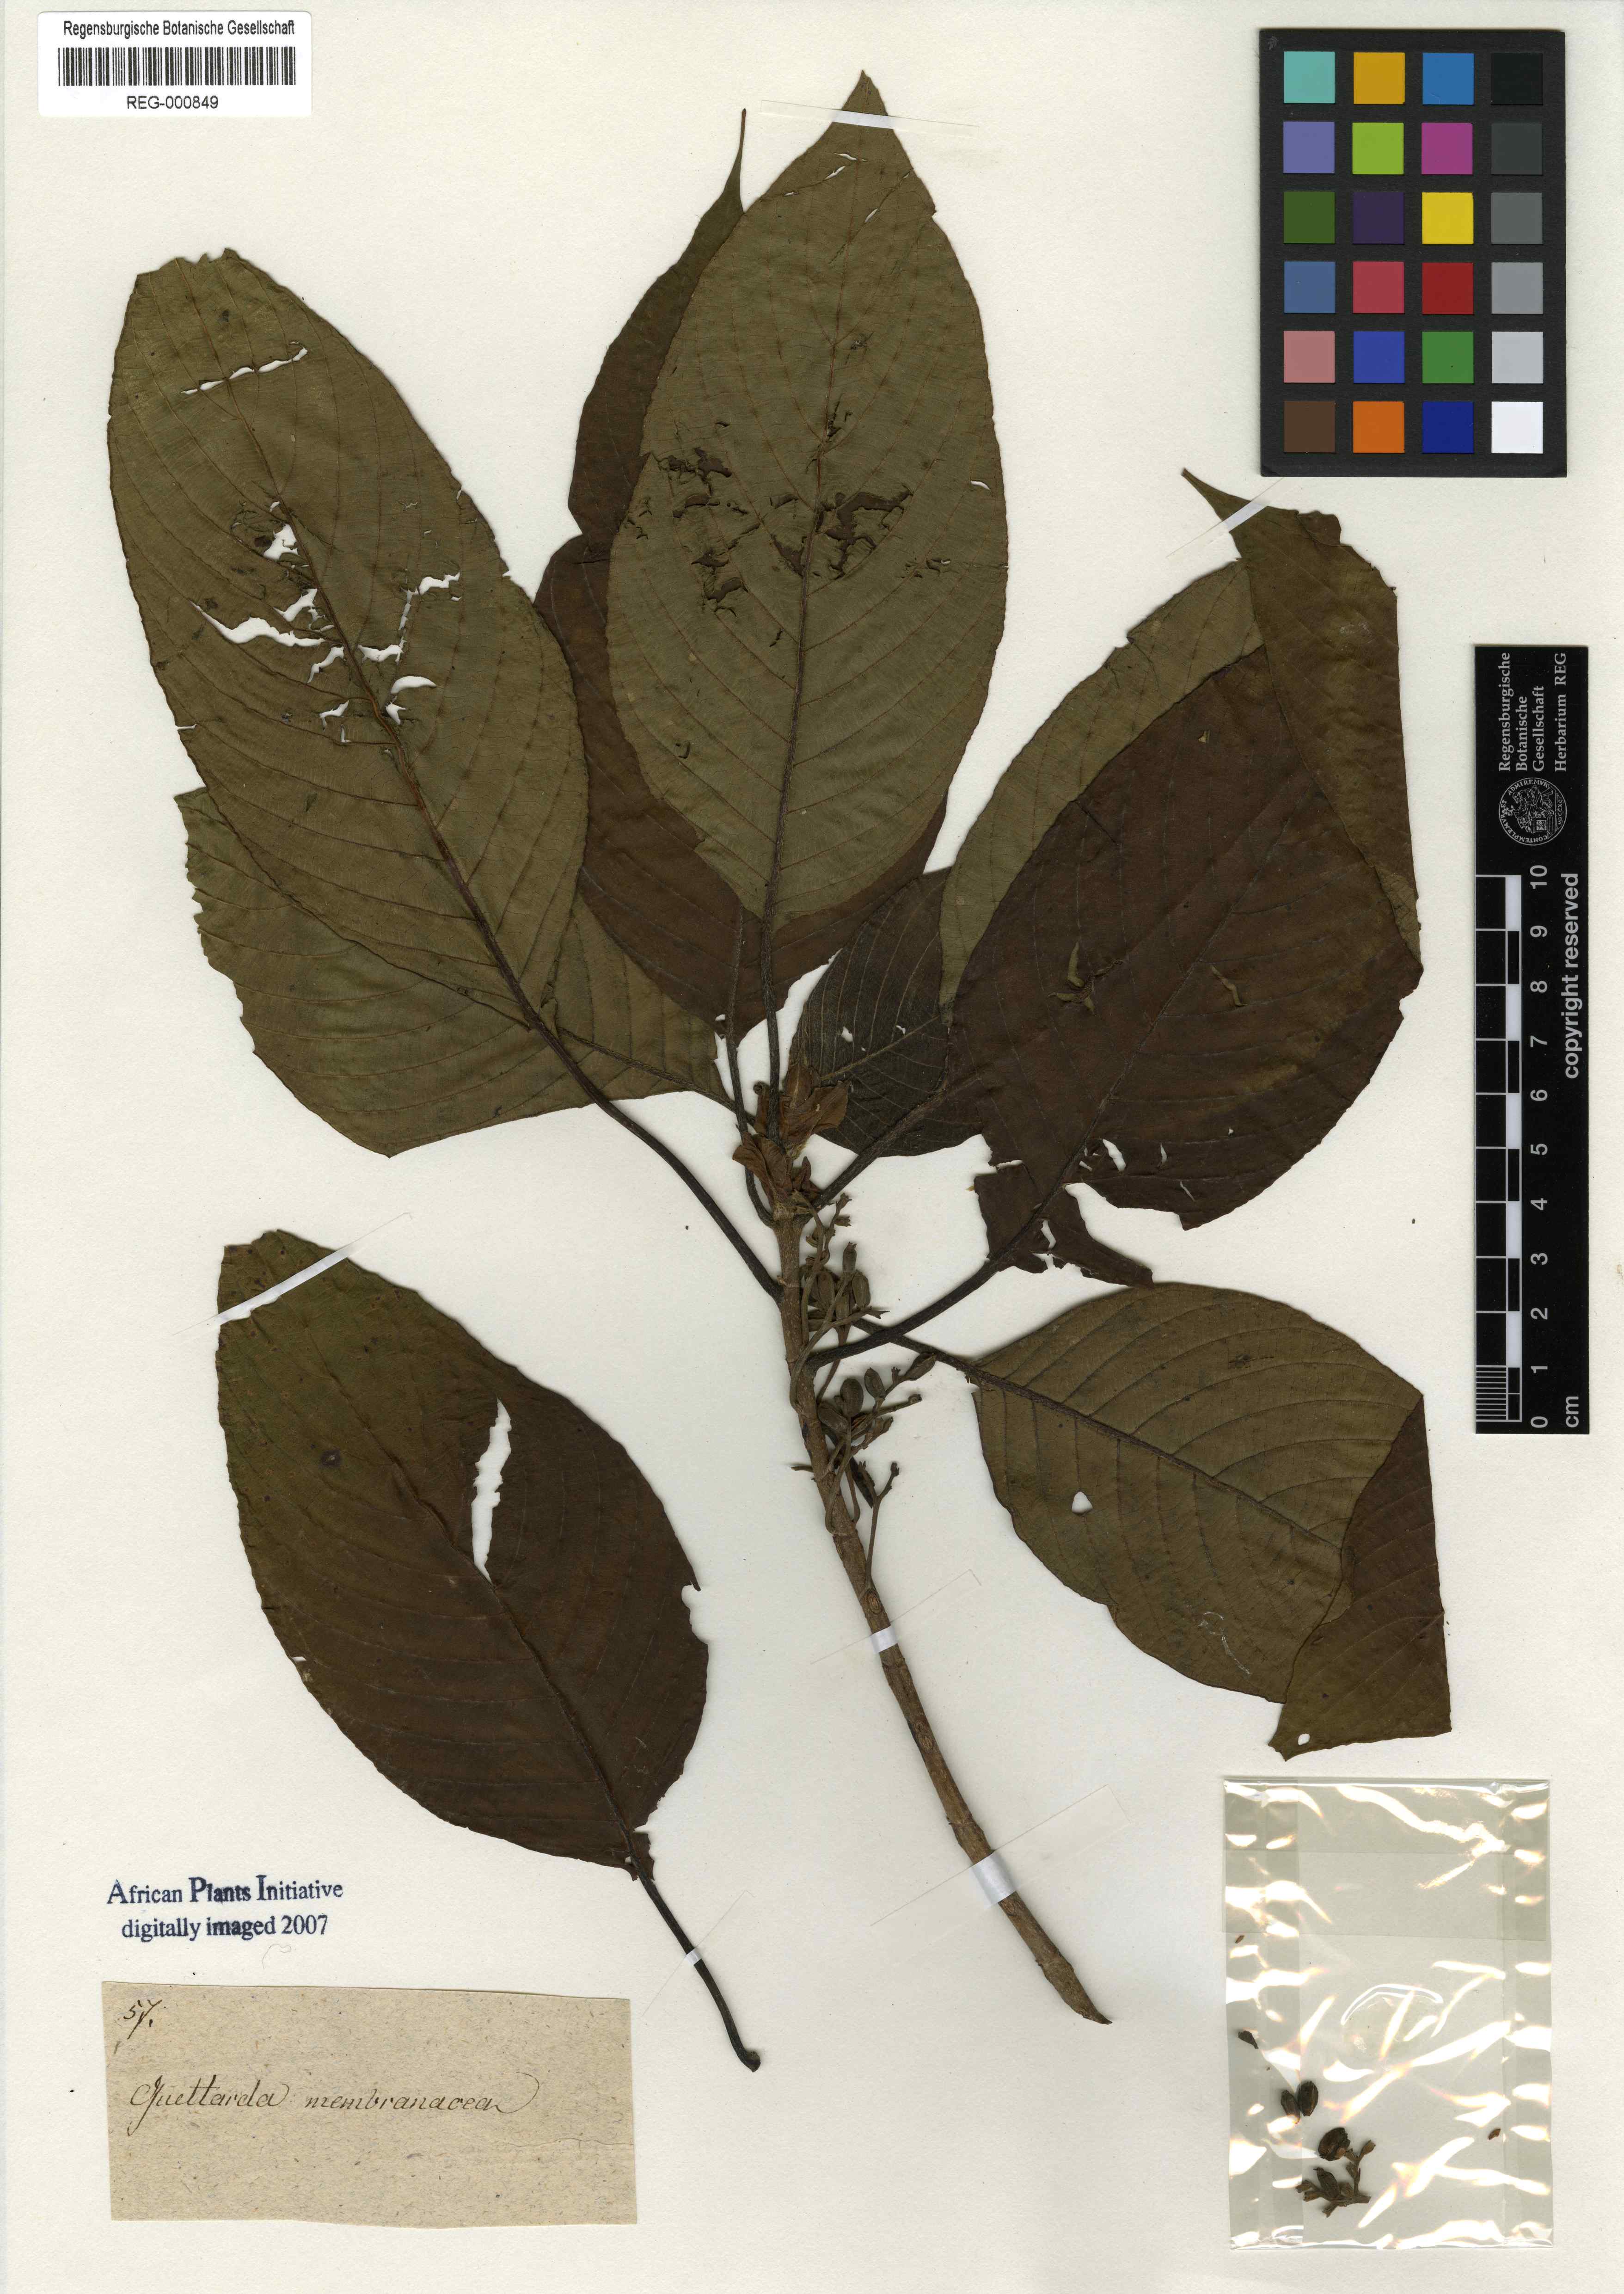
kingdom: Plantae
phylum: Tracheophyta
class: Magnoliopsida
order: Gentianales
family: Rubiaceae
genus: Tournefortiopsis
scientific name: Tournefortiopsis crispiflora
